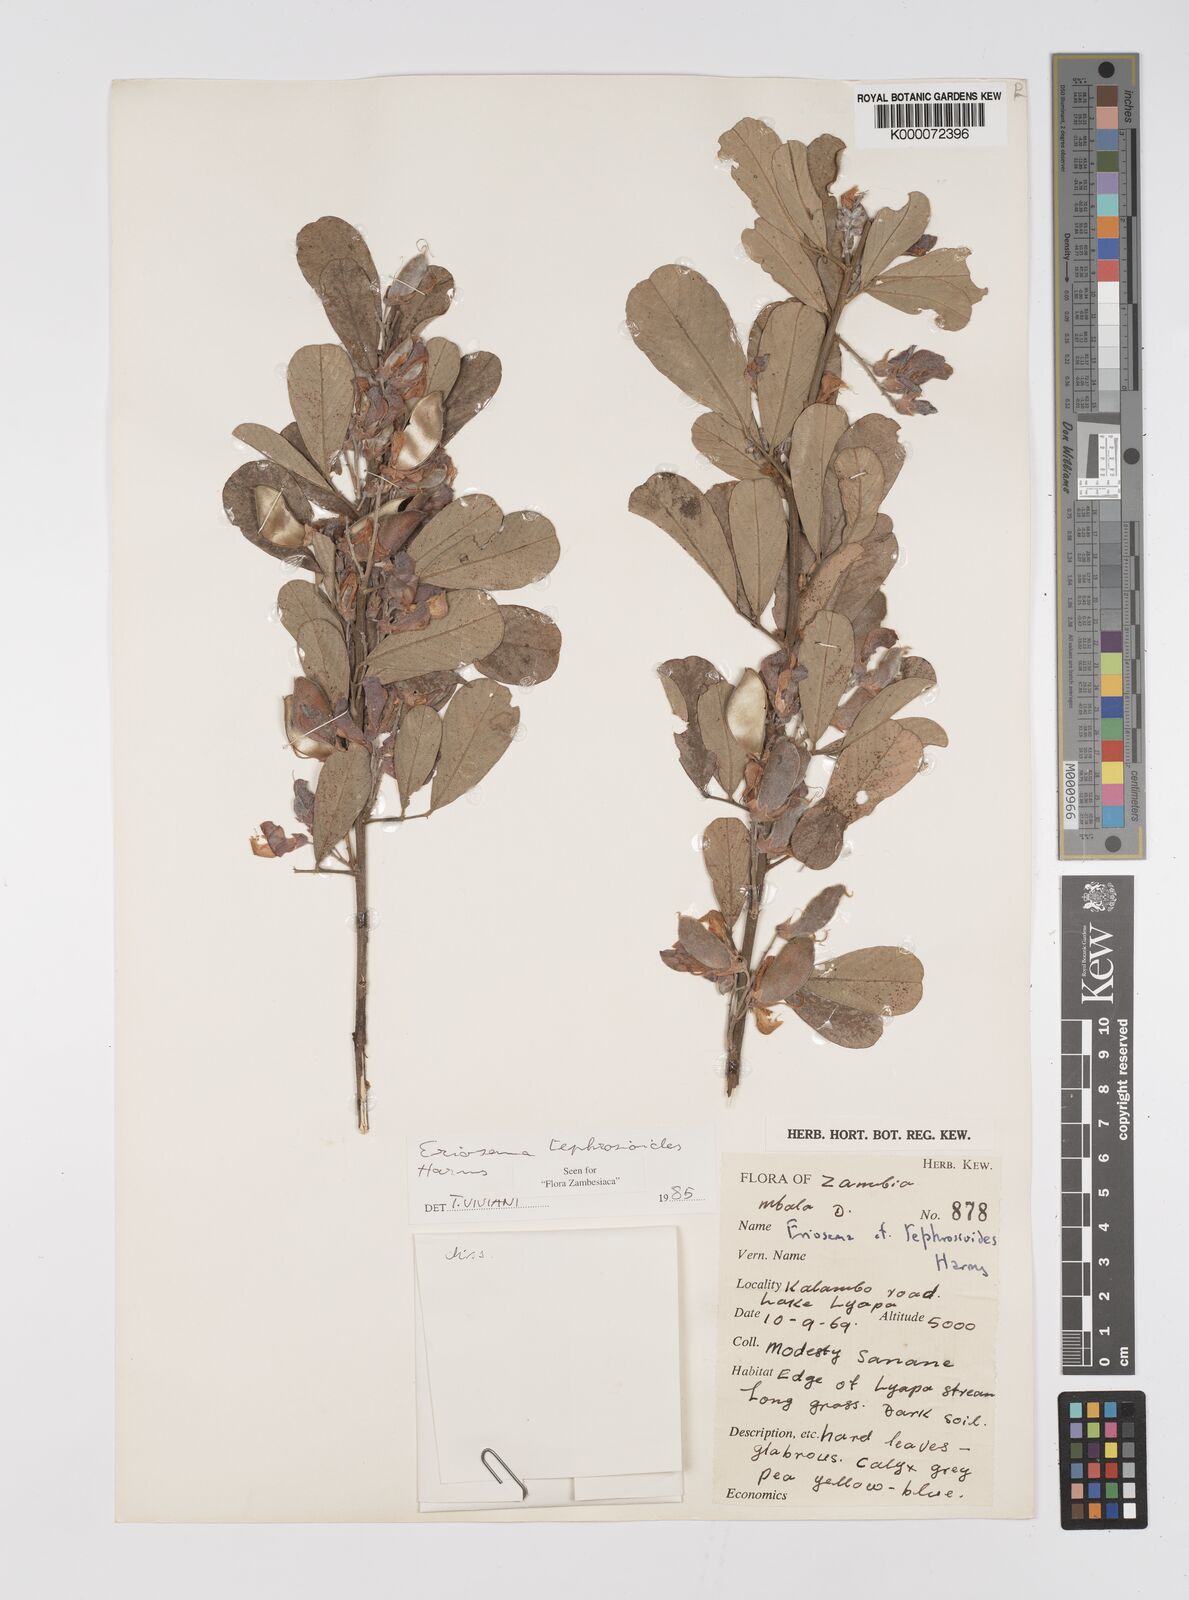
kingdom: Plantae
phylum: Tracheophyta
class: Magnoliopsida
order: Fabales
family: Fabaceae
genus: Eriosema
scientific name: Eriosema tephrosioides
